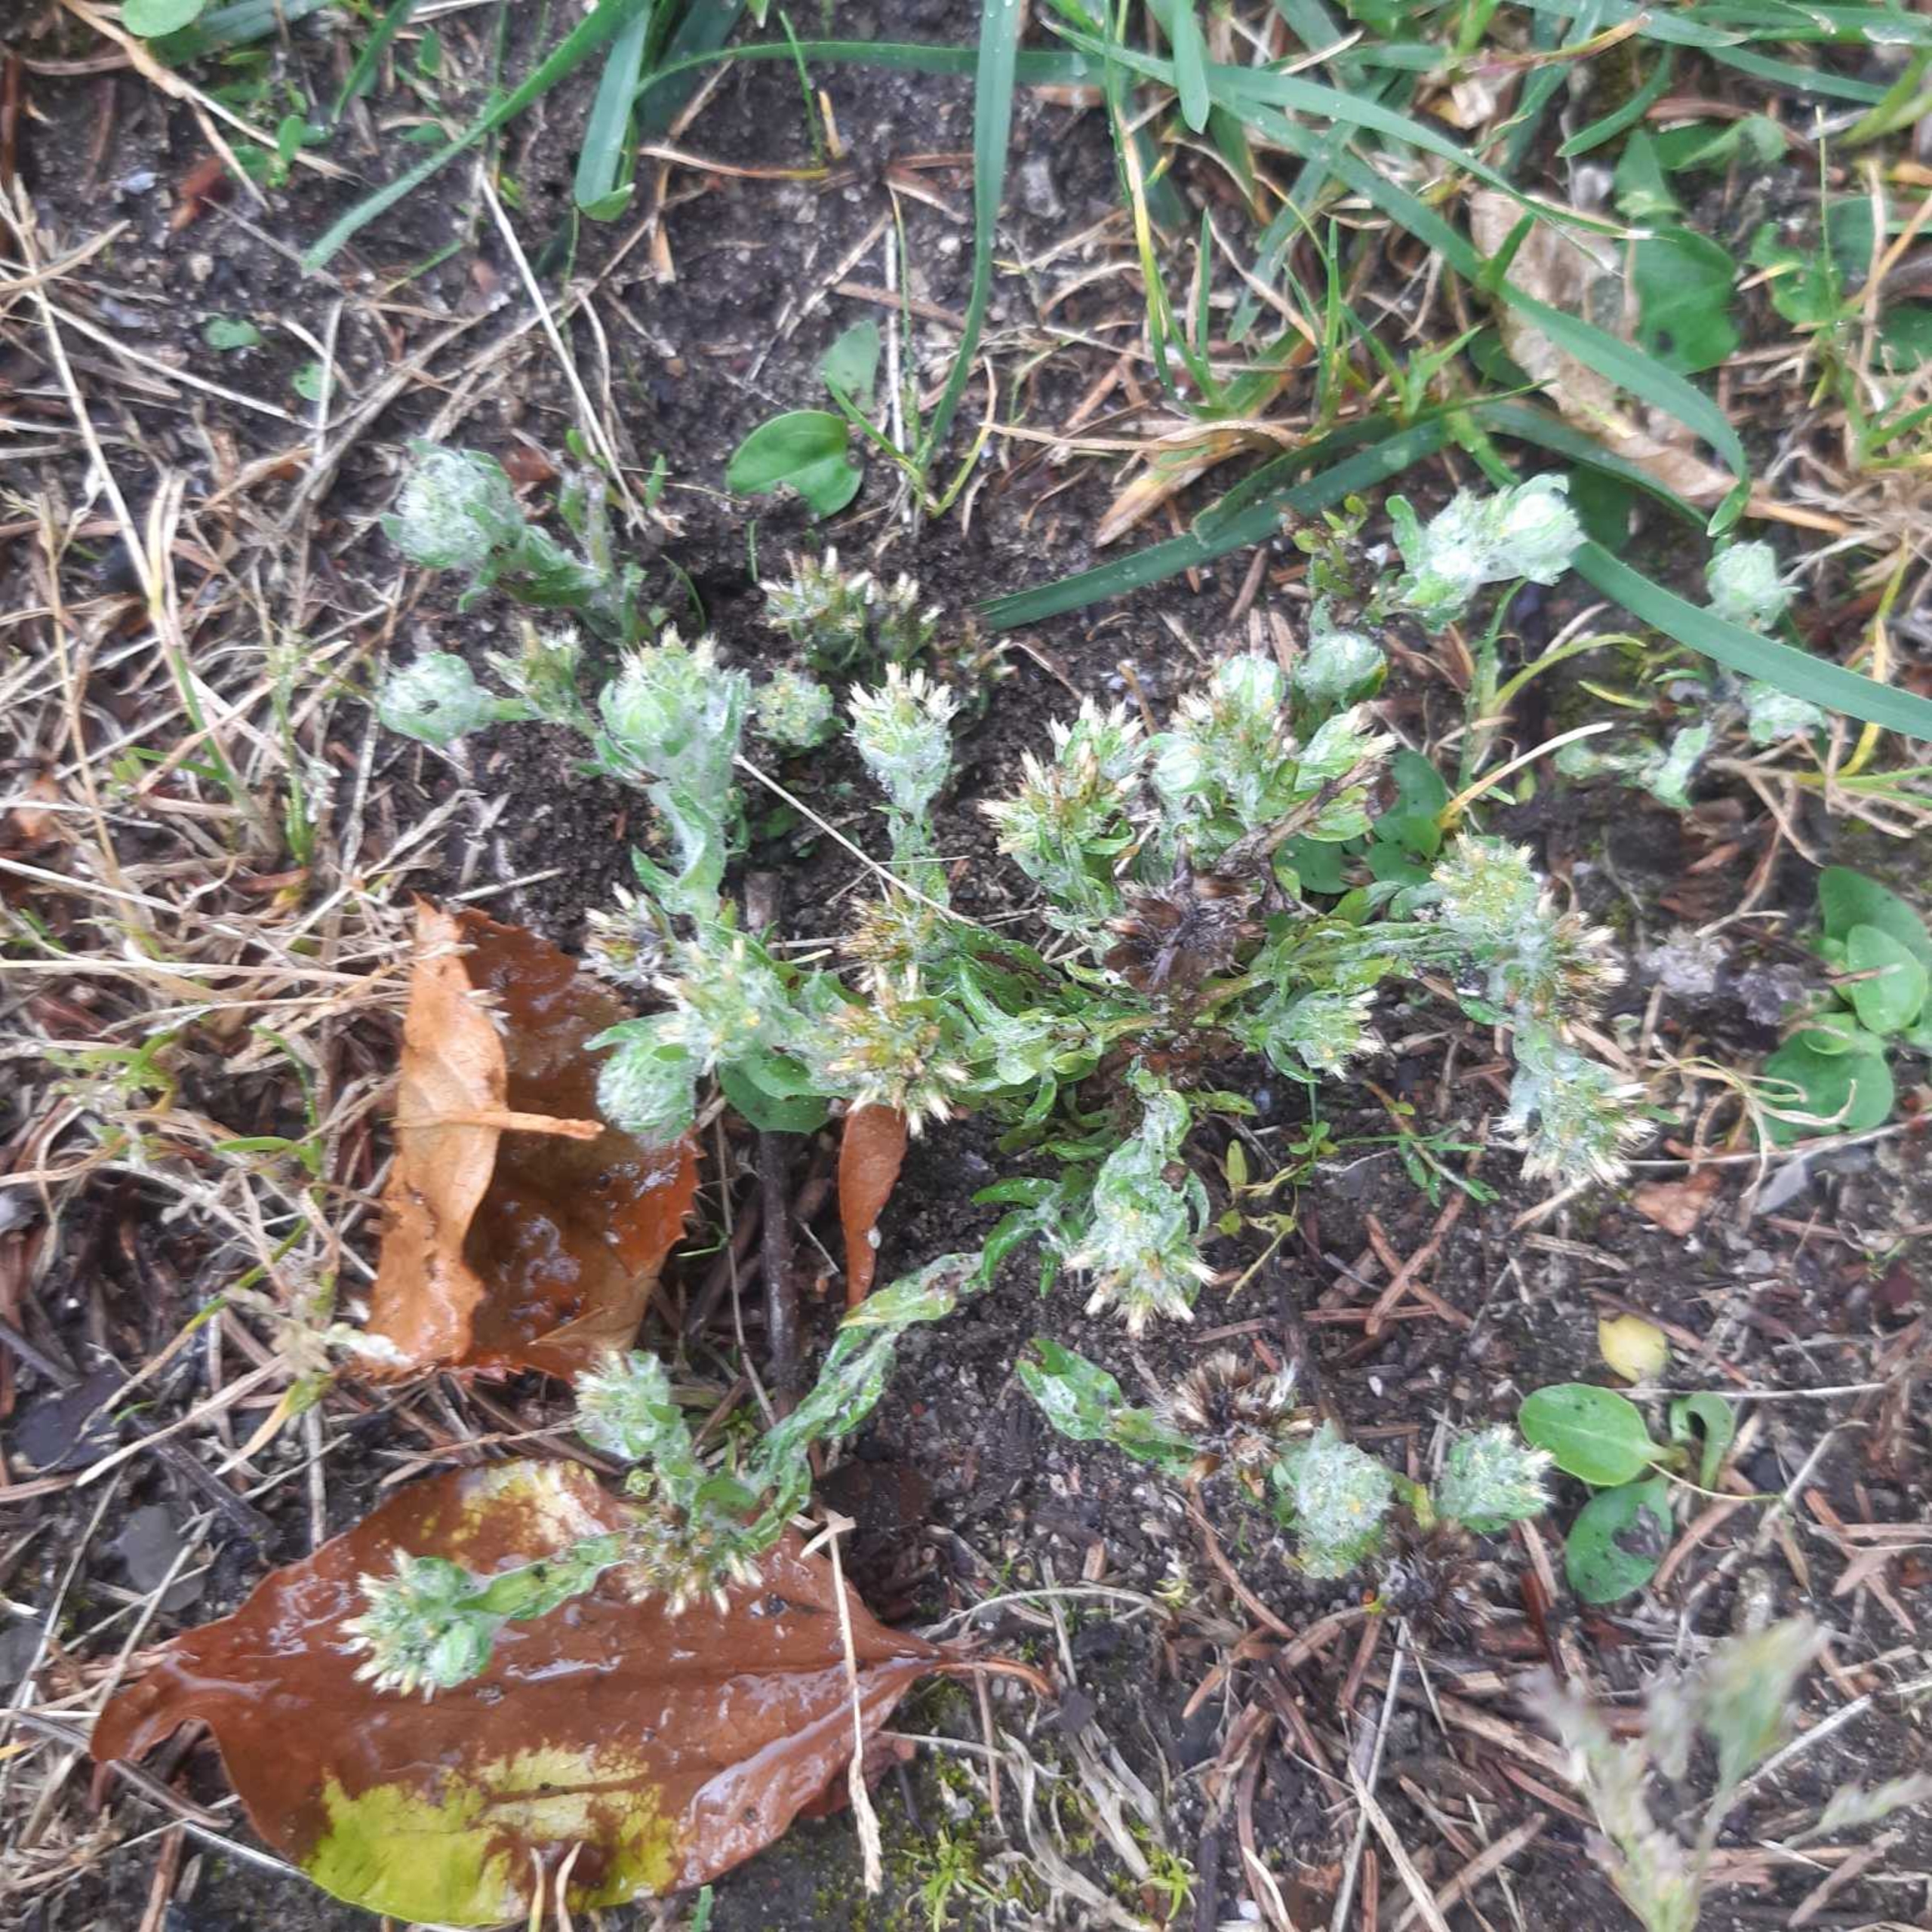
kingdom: Plantae
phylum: Tracheophyta
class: Magnoliopsida
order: Asterales
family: Asteraceae
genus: Filago
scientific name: Filago germanica
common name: Kugle-museurt
